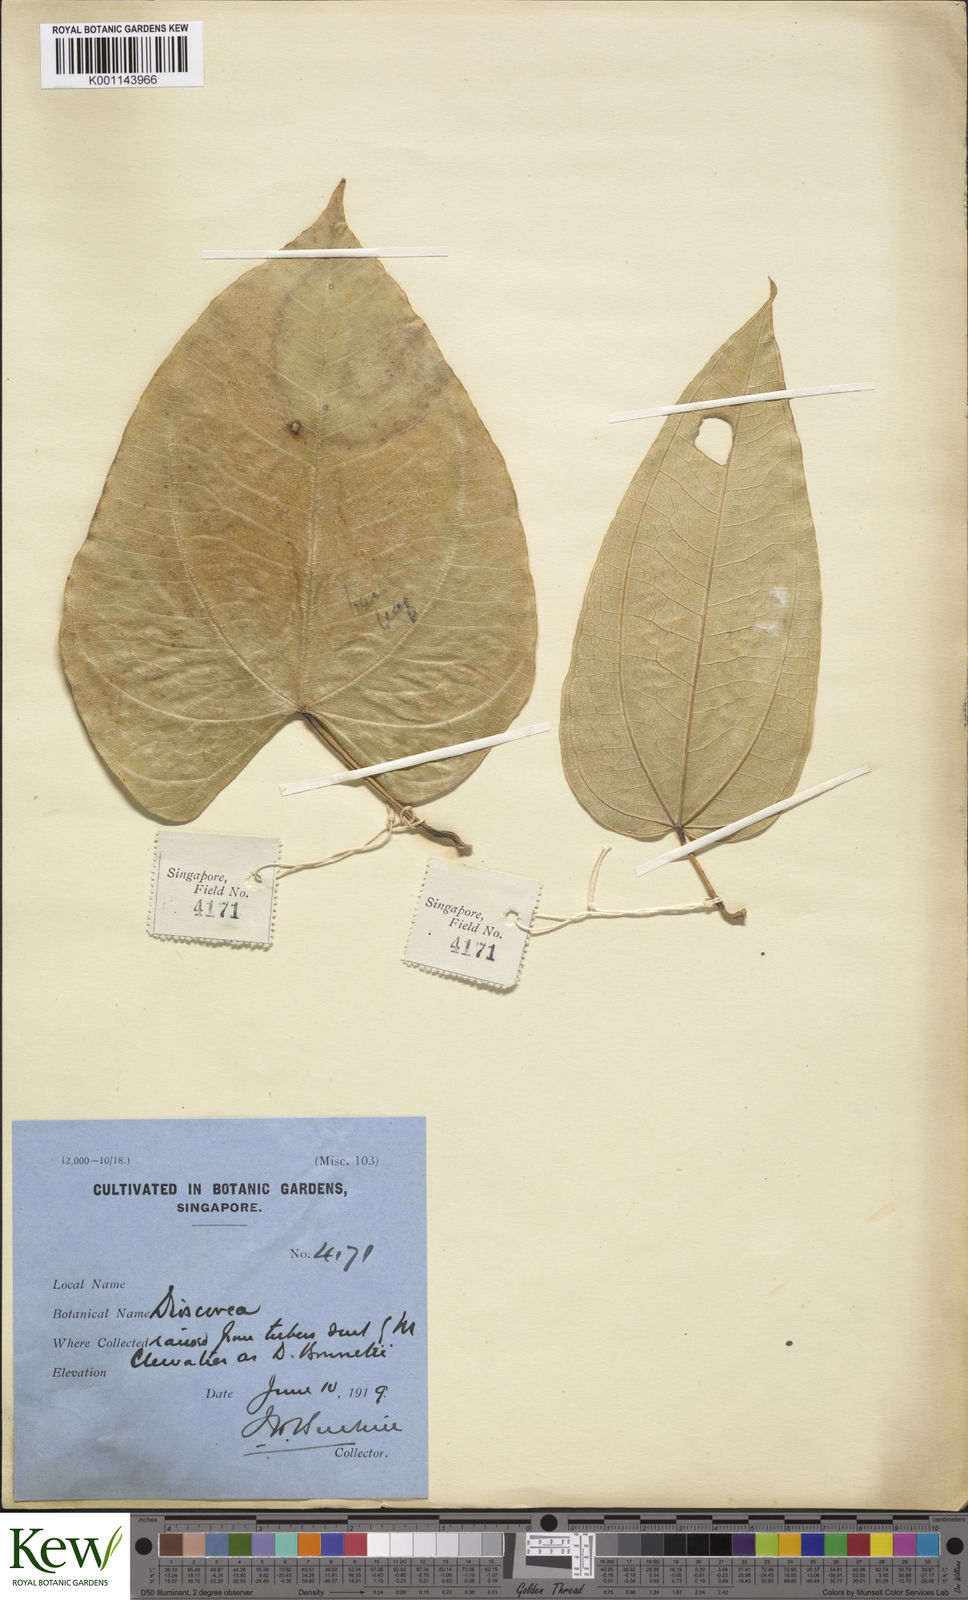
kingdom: Plantae
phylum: Tracheophyta
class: Liliopsida
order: Dioscoreales
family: Dioscoreaceae
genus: Dioscorea
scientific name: Dioscorea cirrhosa
